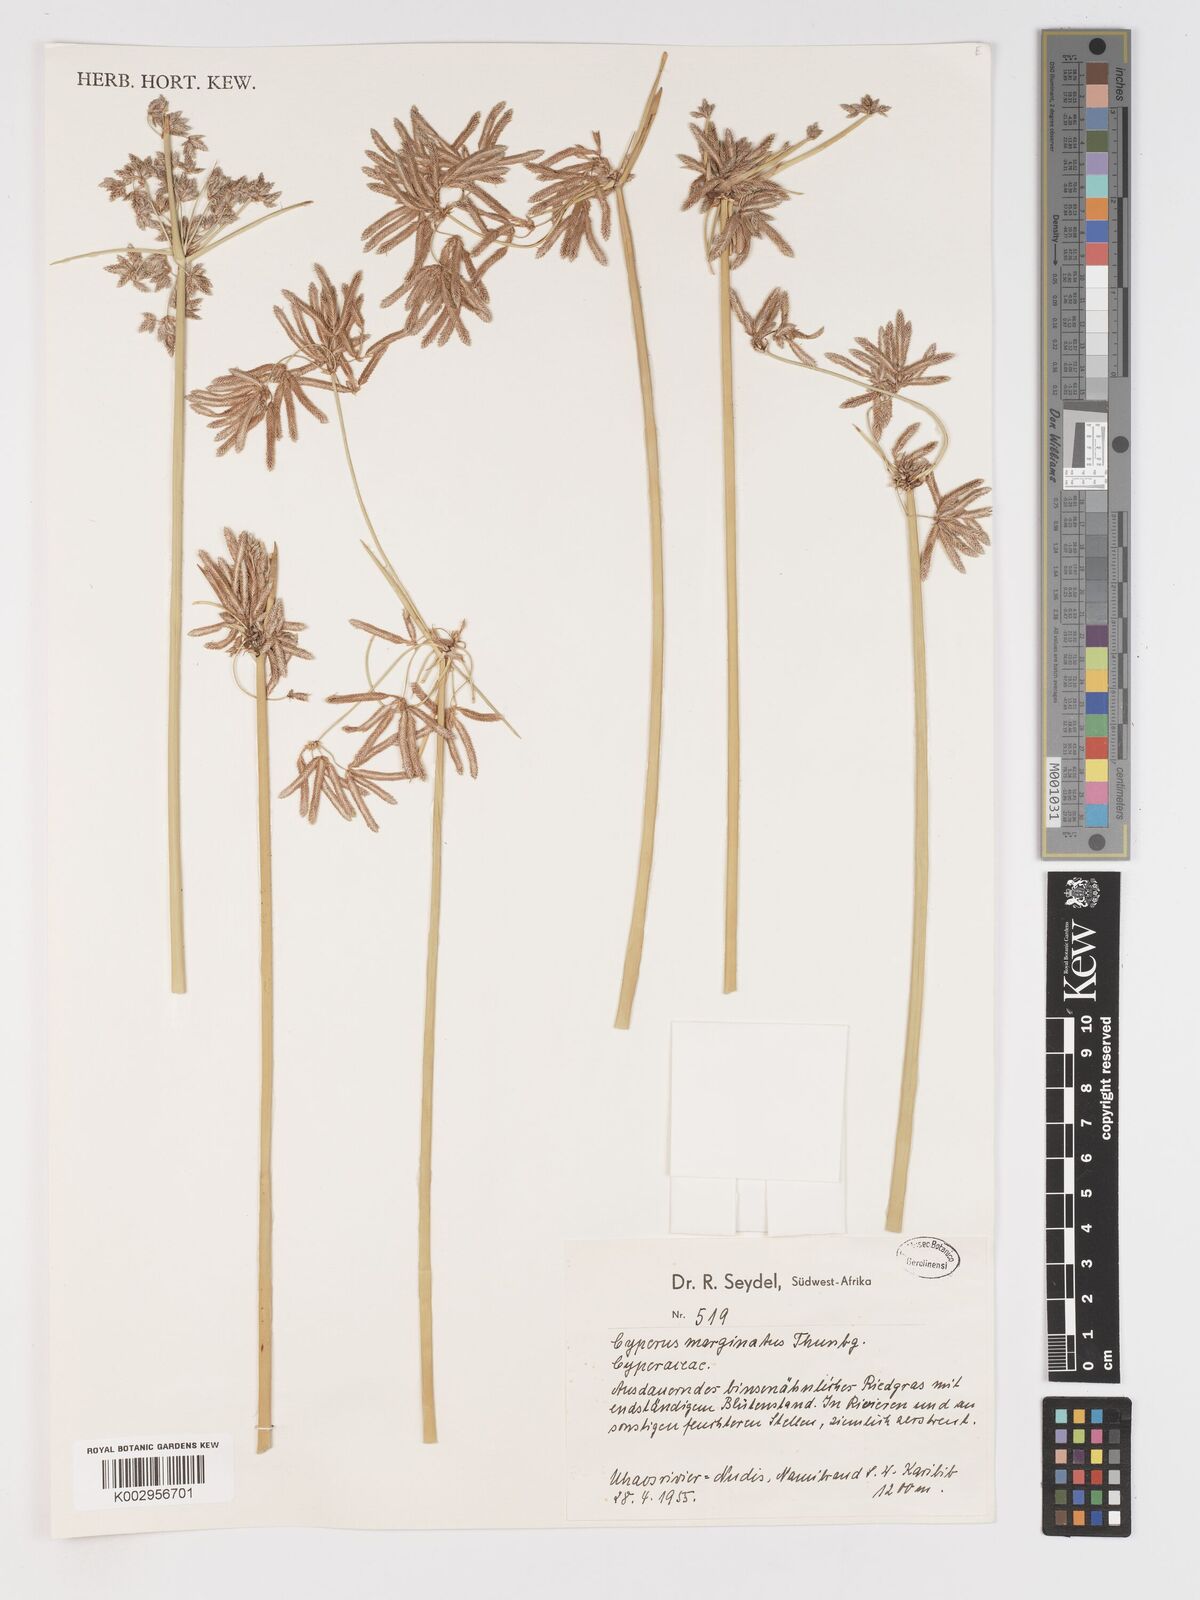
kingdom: Plantae
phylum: Tracheophyta
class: Liliopsida
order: Poales
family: Cyperaceae
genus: Cyperus
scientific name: Cyperus marginatus
